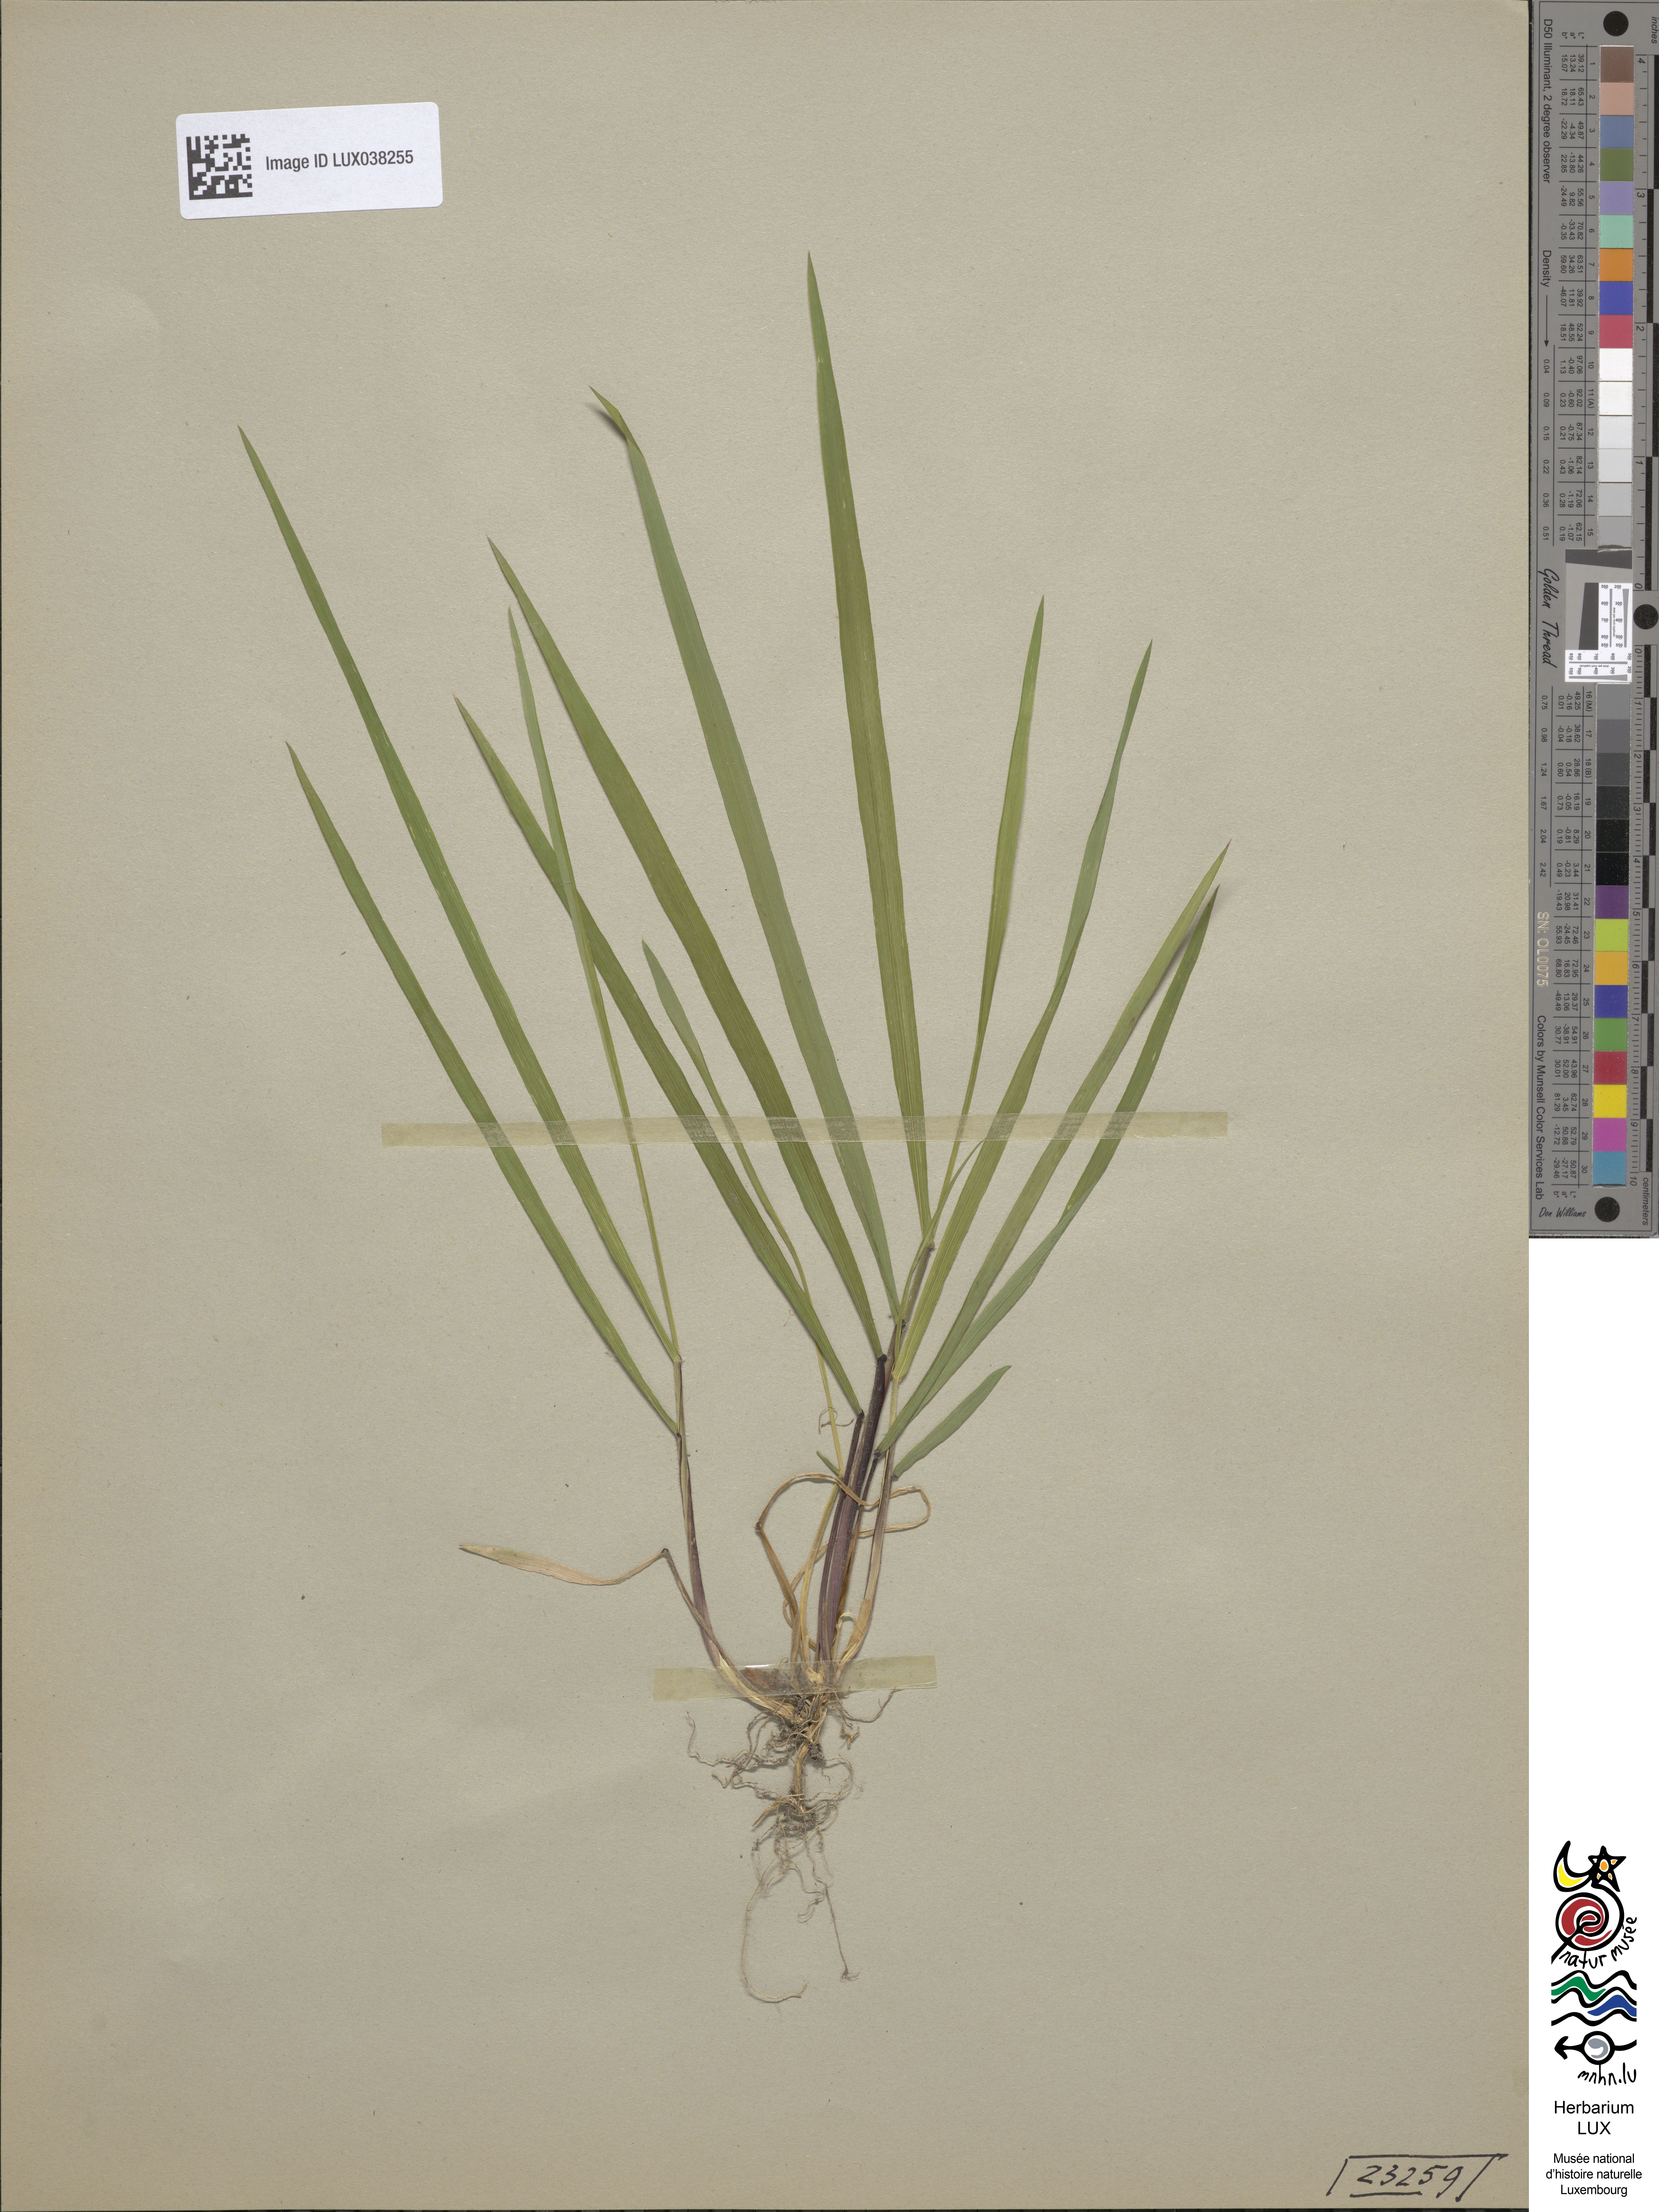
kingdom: Plantae
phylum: Tracheophyta
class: Liliopsida
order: Poales
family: Poaceae
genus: Anthoxanthum
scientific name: Anthoxanthum odoratum
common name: Sweet vernalgrass
